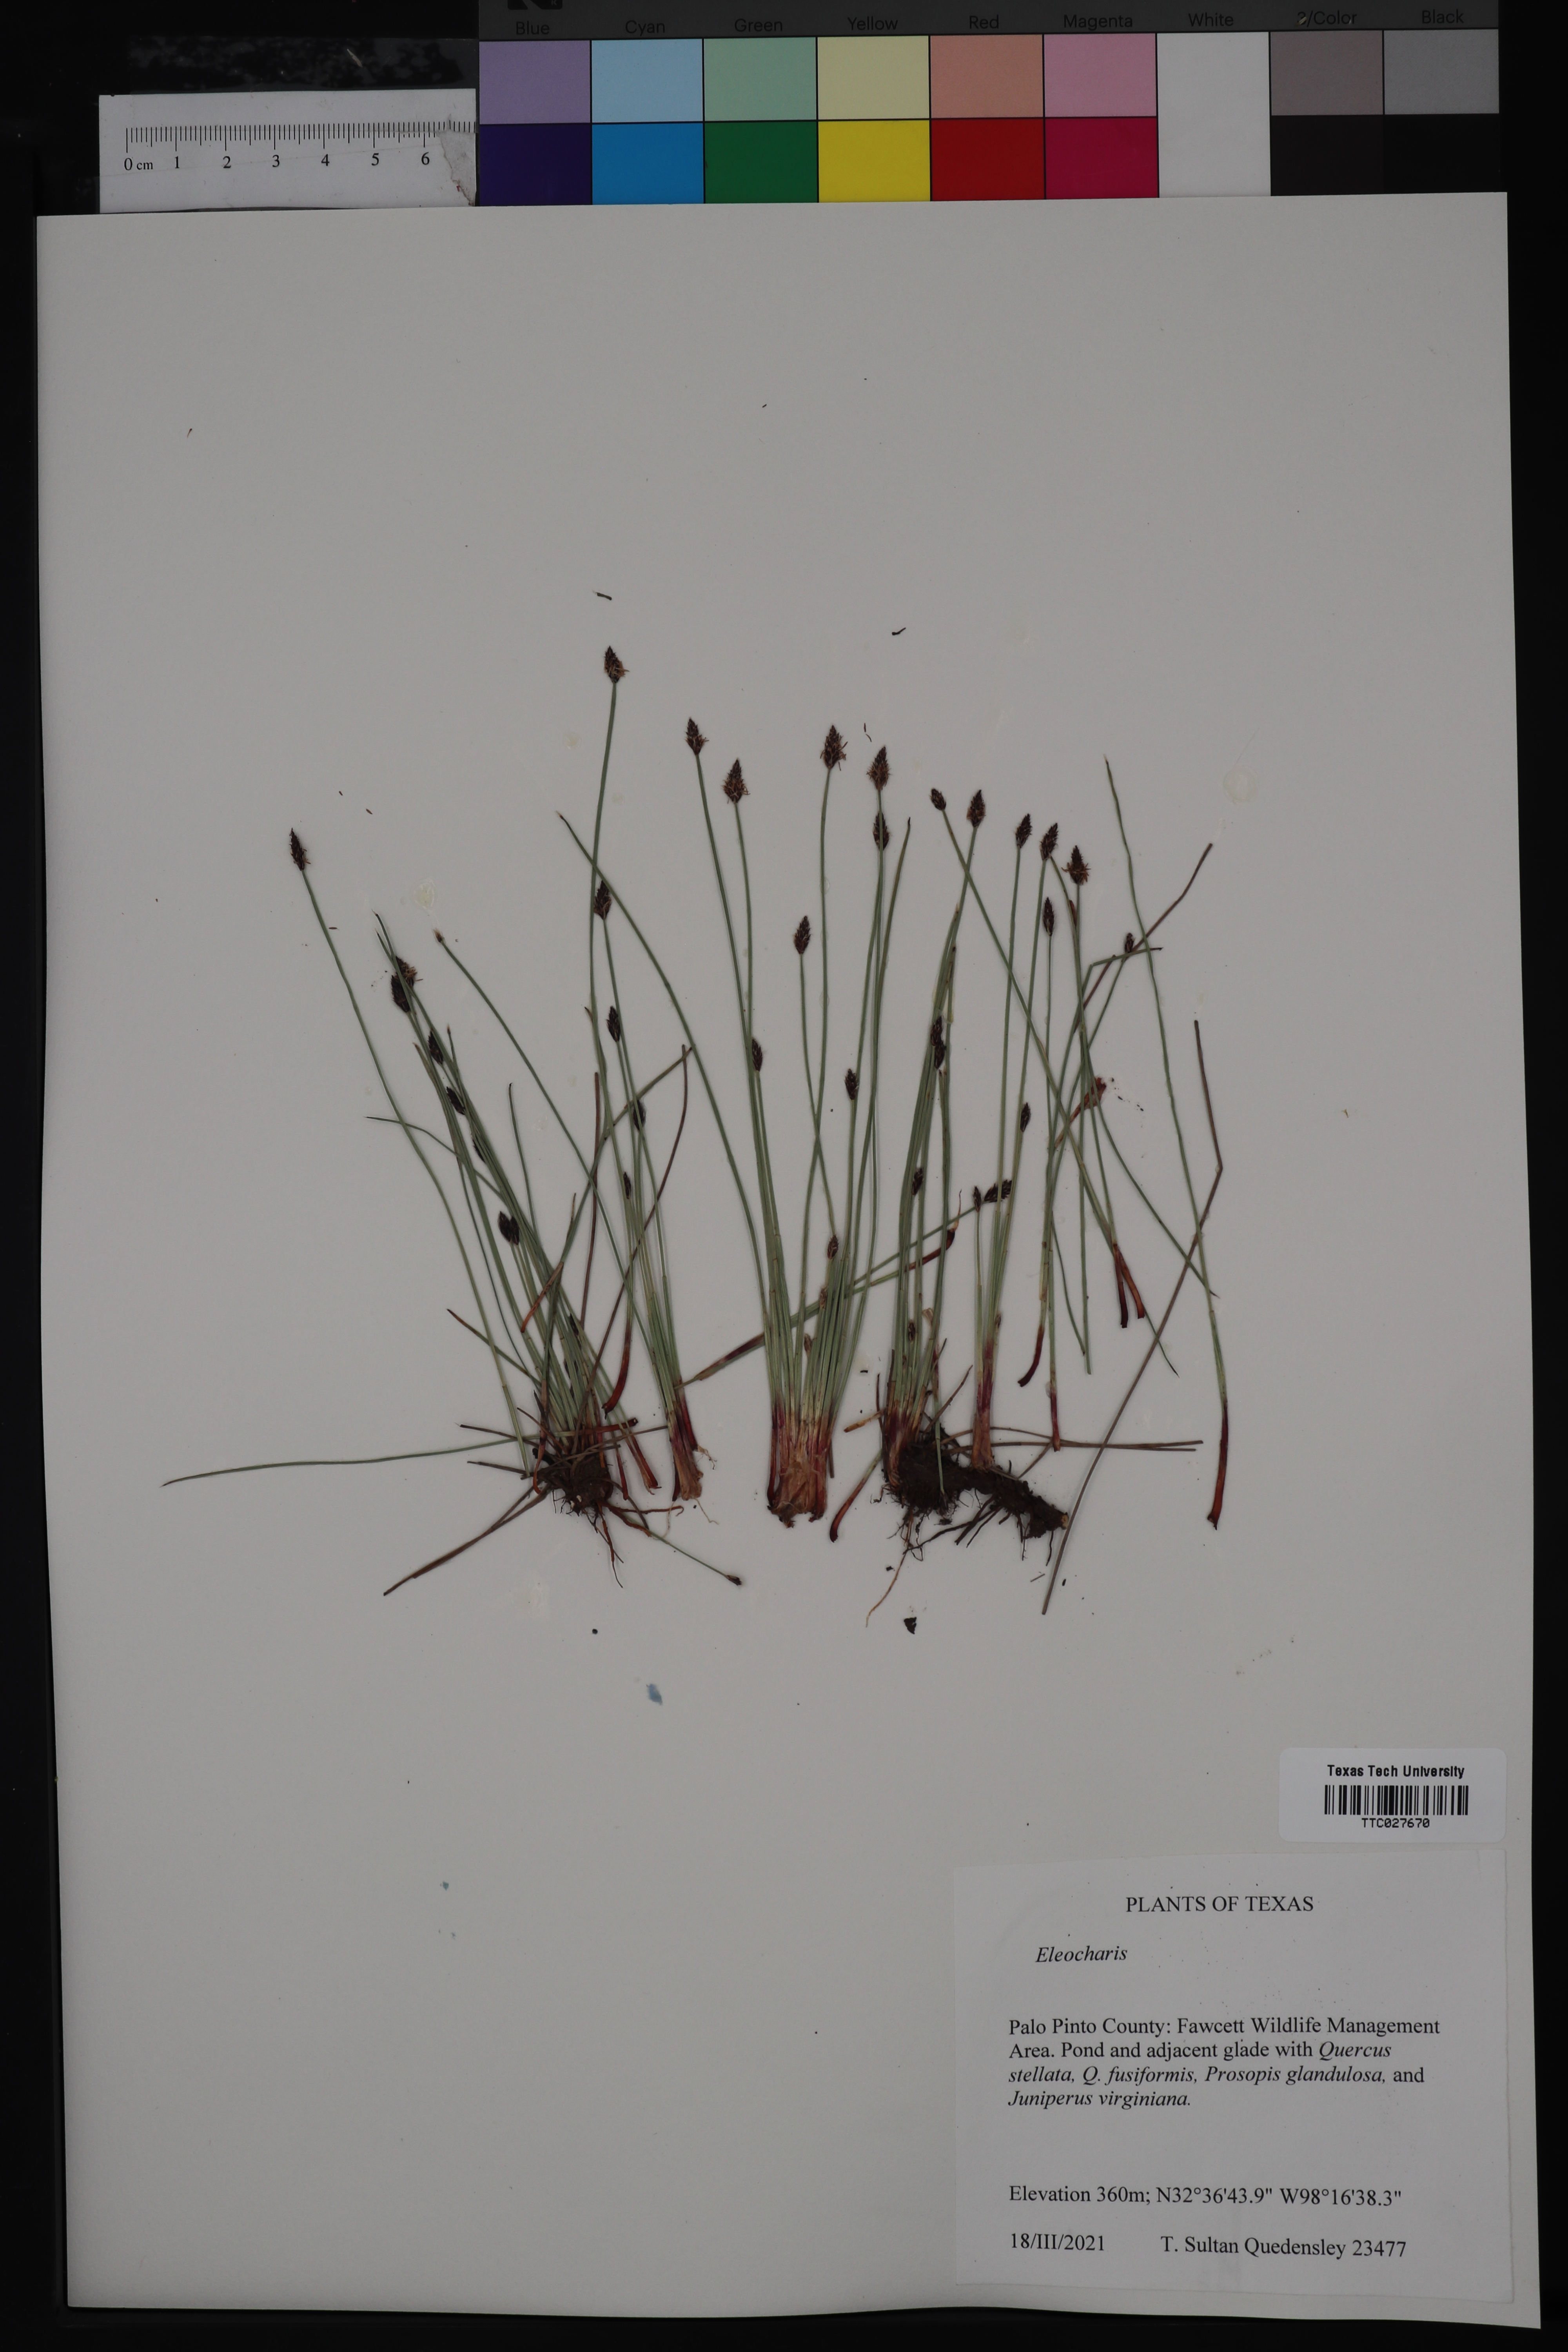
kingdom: Plantae
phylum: Tracheophyta
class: Liliopsida
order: Poales
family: Cyperaceae
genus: Eleocharis
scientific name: Eleocharis
